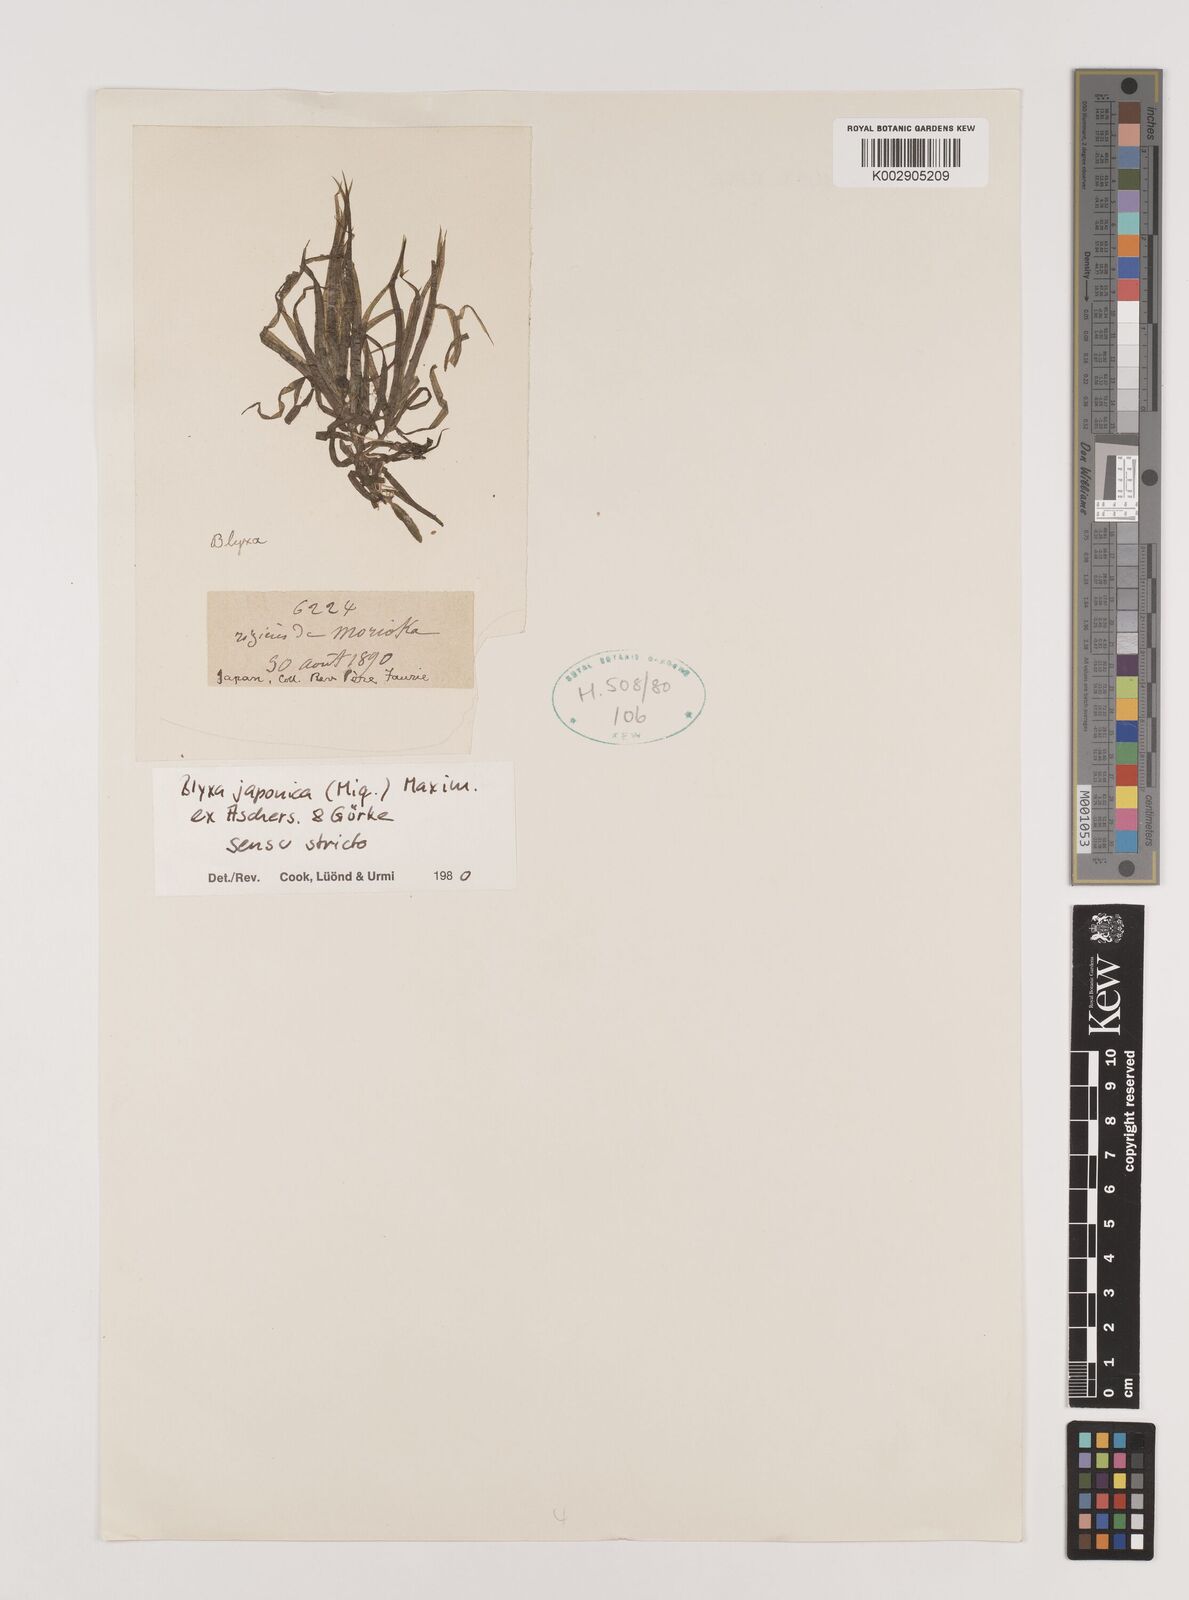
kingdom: Plantae
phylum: Tracheophyta
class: Liliopsida
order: Alismatales
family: Hydrocharitaceae
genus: Blyxa
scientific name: Blyxa japonica
